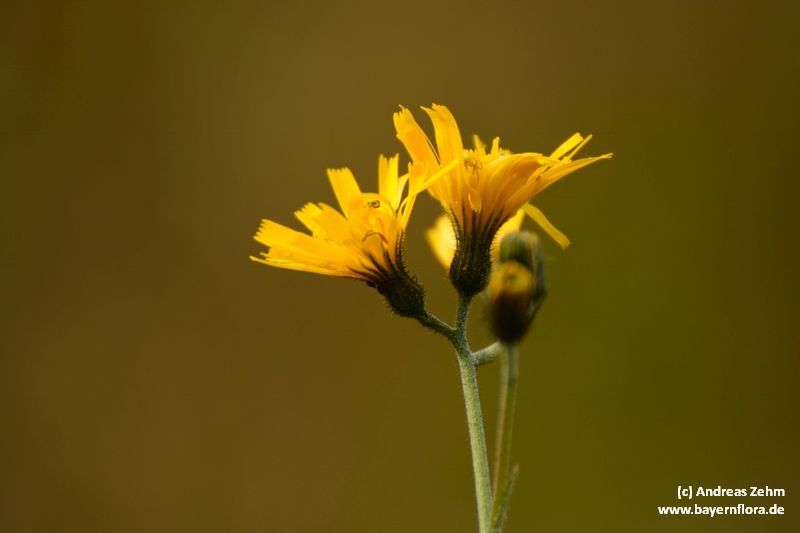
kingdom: Plantae
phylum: Tracheophyta
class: Magnoliopsida
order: Asterales
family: Asteraceae
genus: Hieracium
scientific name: Hieracium murorum
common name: Wall hawkweed
